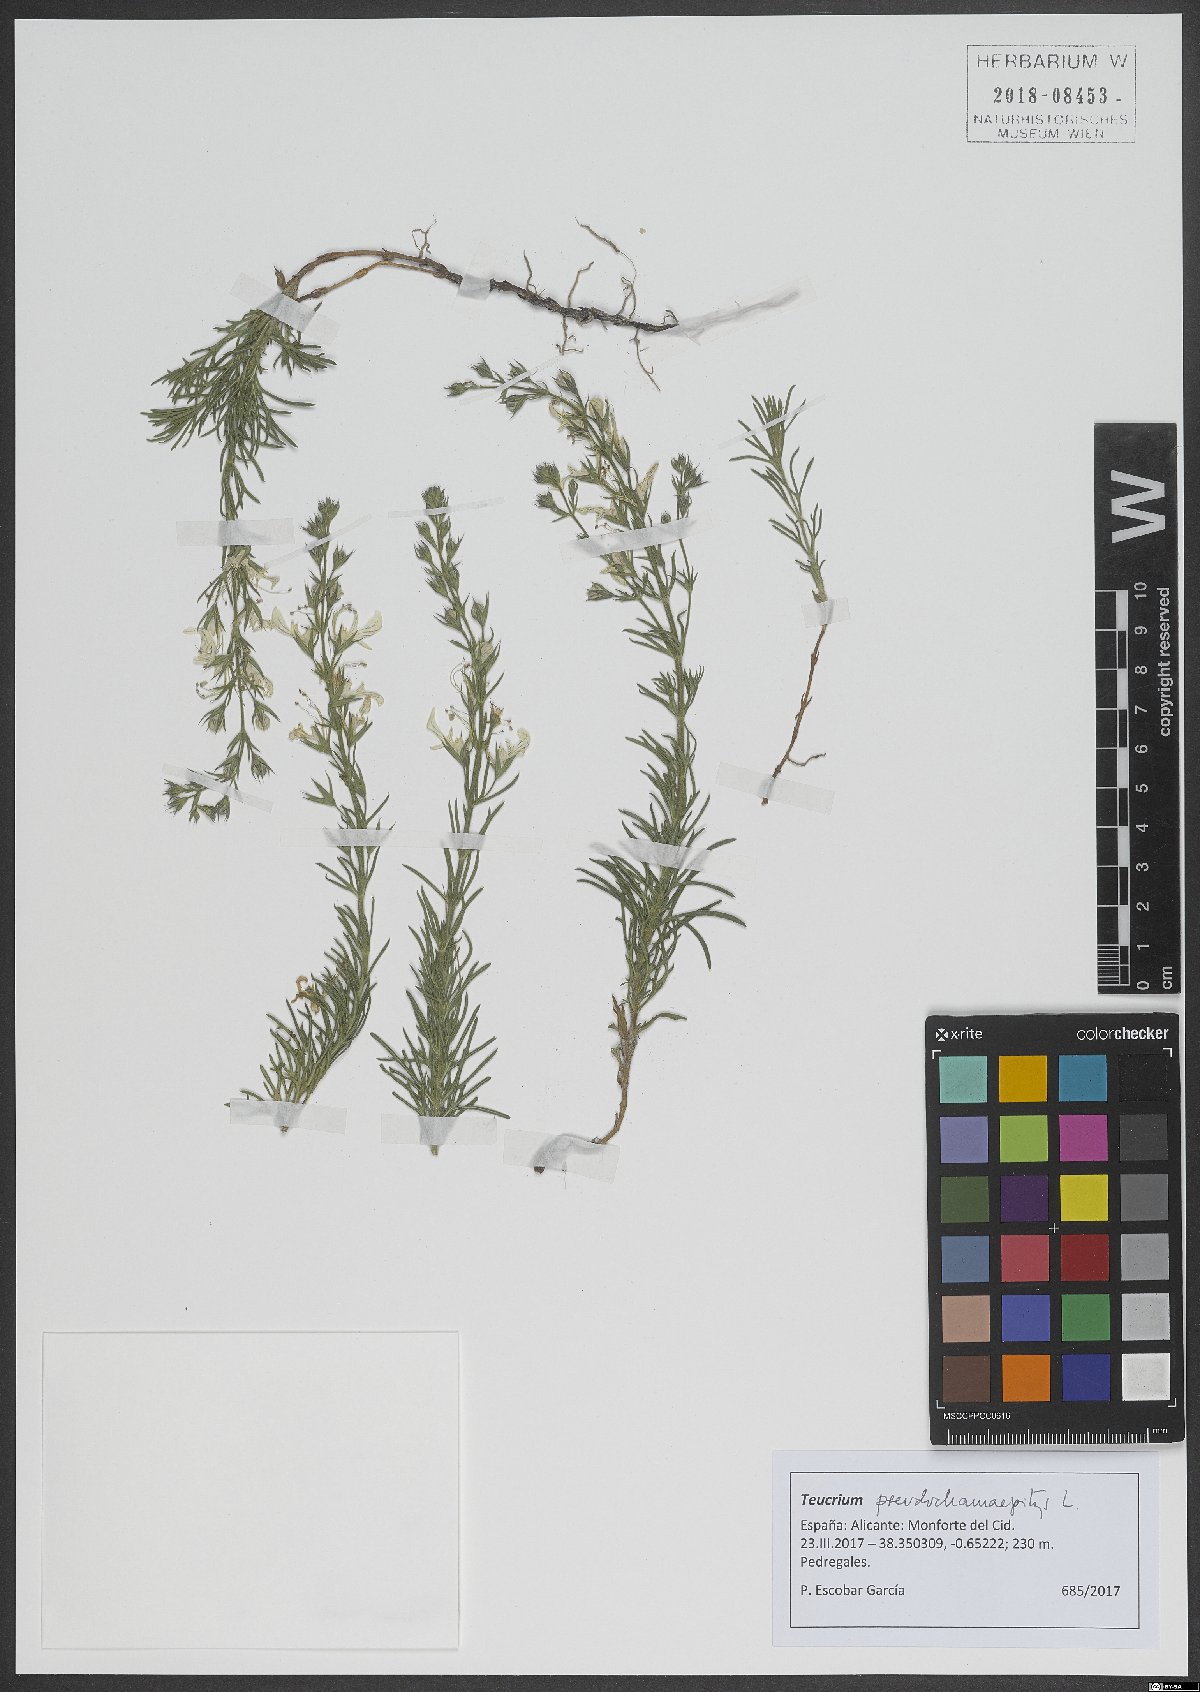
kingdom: Plantae
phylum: Tracheophyta
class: Magnoliopsida
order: Lamiales
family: Lamiaceae
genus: Teucrium
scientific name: Teucrium pseudochamaepitys
